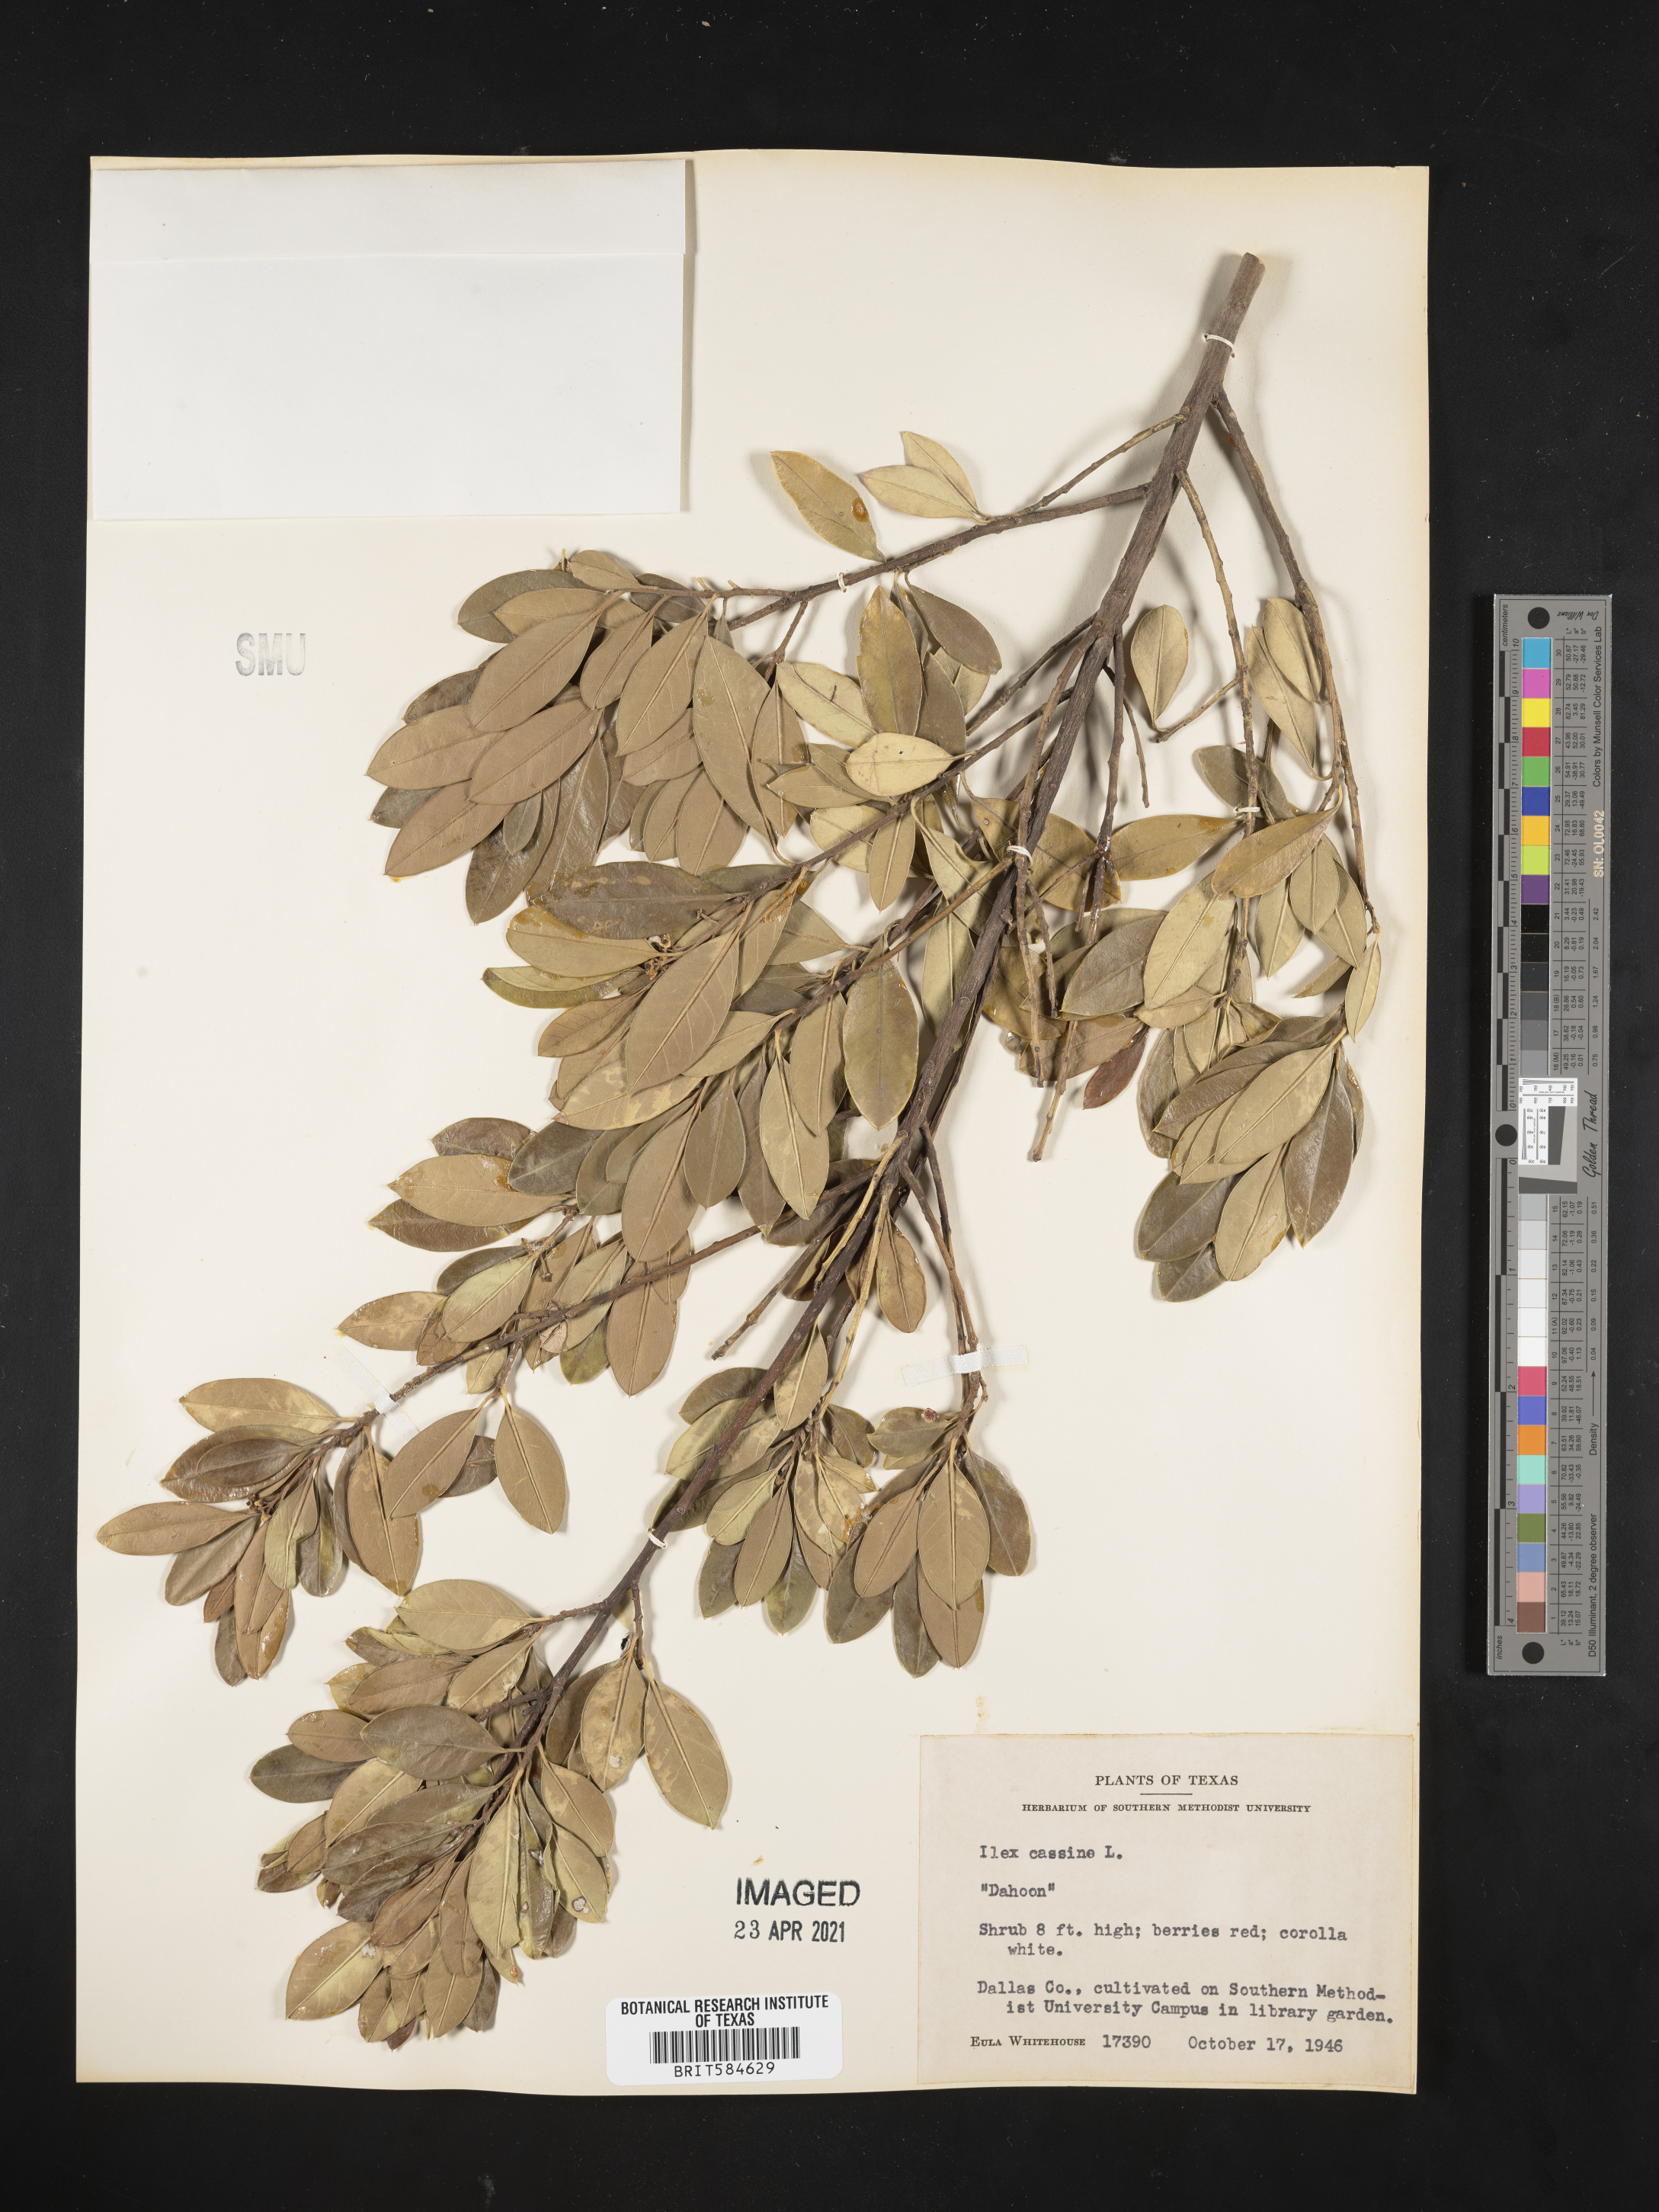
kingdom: Plantae
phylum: Tracheophyta
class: Magnoliopsida
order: Aquifoliales
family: Aquifoliaceae
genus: Ilex
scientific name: Ilex cassine
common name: Dahoon
